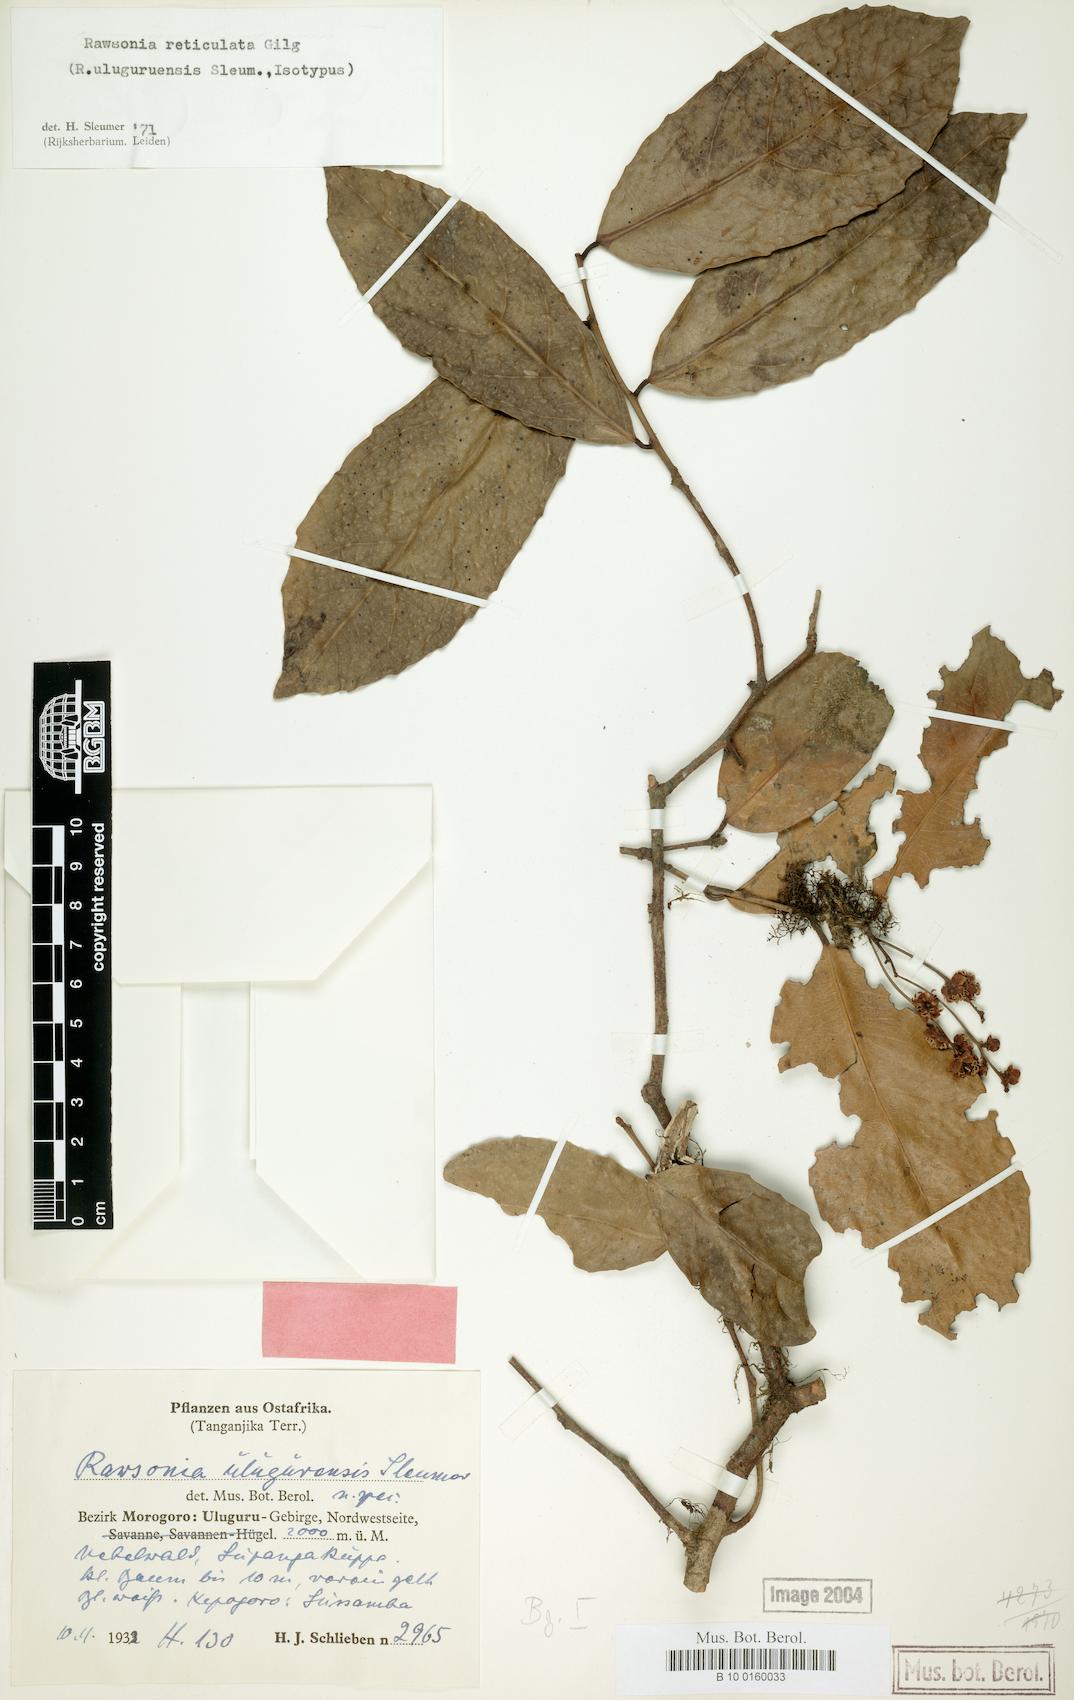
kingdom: Plantae
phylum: Tracheophyta
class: Magnoliopsida
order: Malpighiales
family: Achariaceae
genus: Rawsonia
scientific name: Rawsonia lucida
